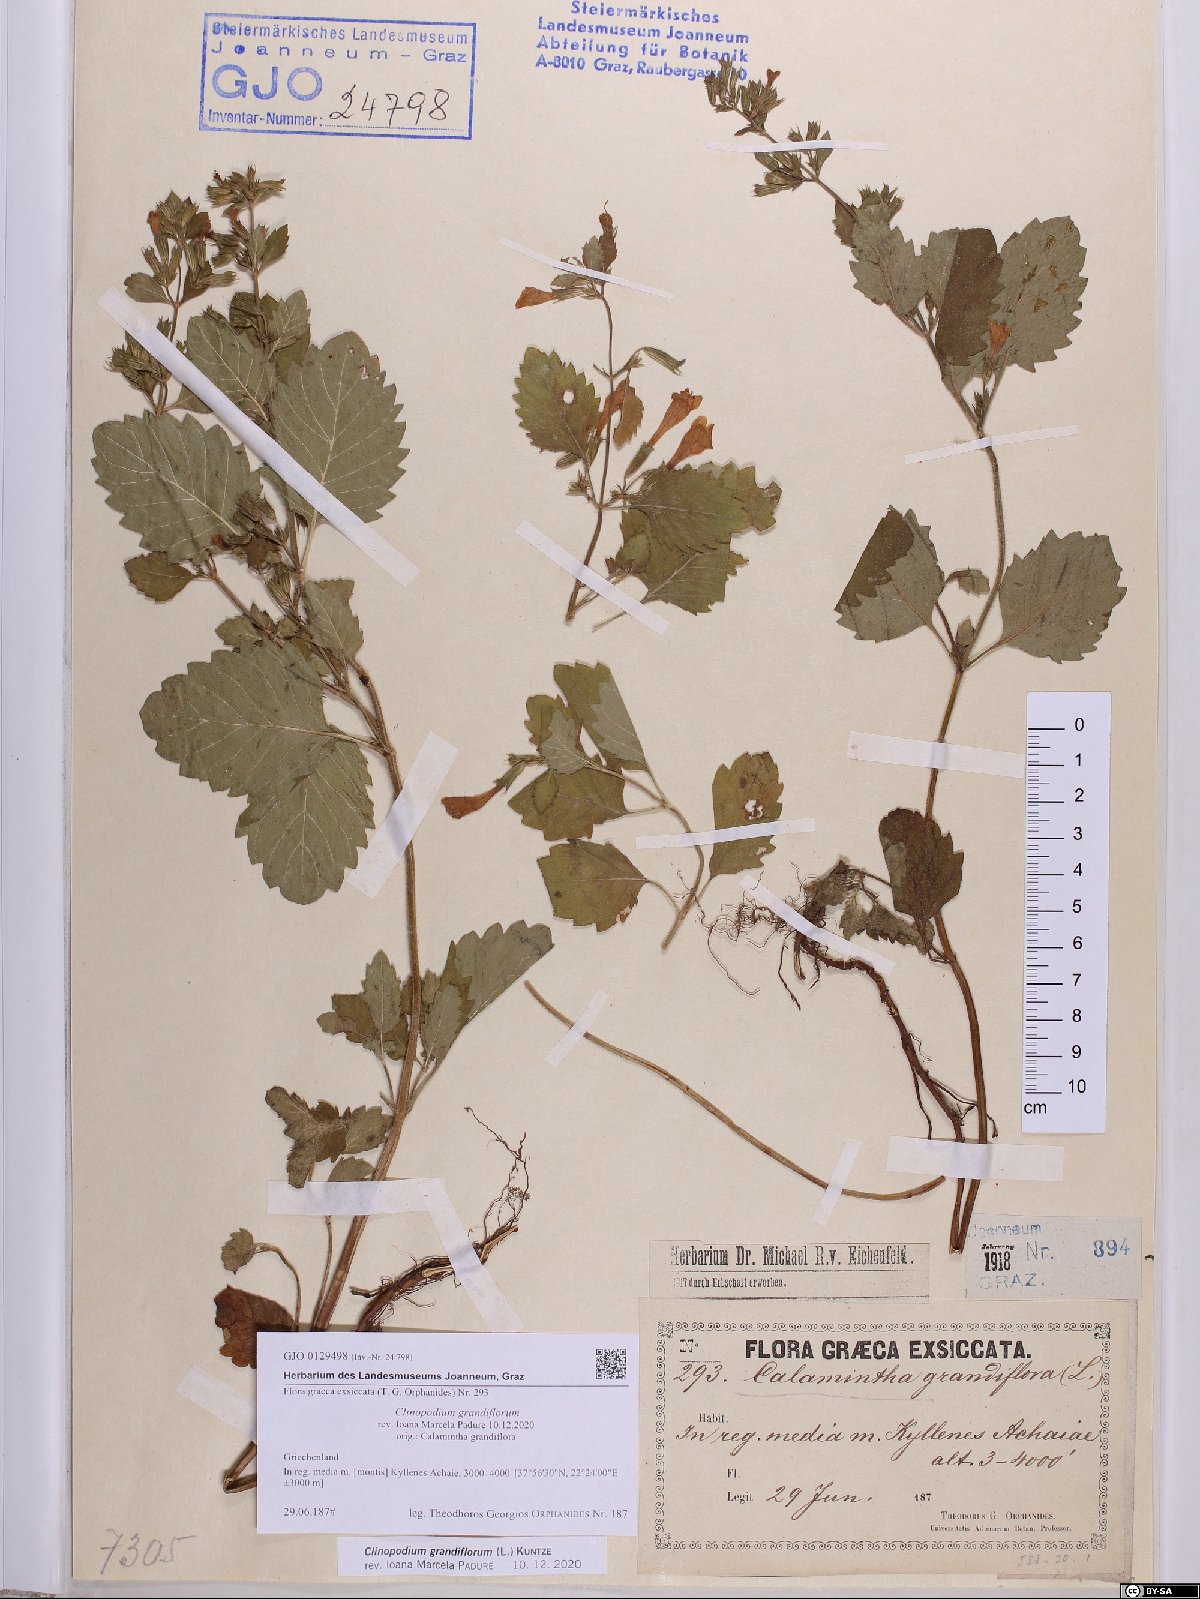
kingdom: Plantae
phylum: Tracheophyta
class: Magnoliopsida
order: Lamiales
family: Lamiaceae
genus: Clinopodium
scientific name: Clinopodium grandiflorum
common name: Greater calamint
